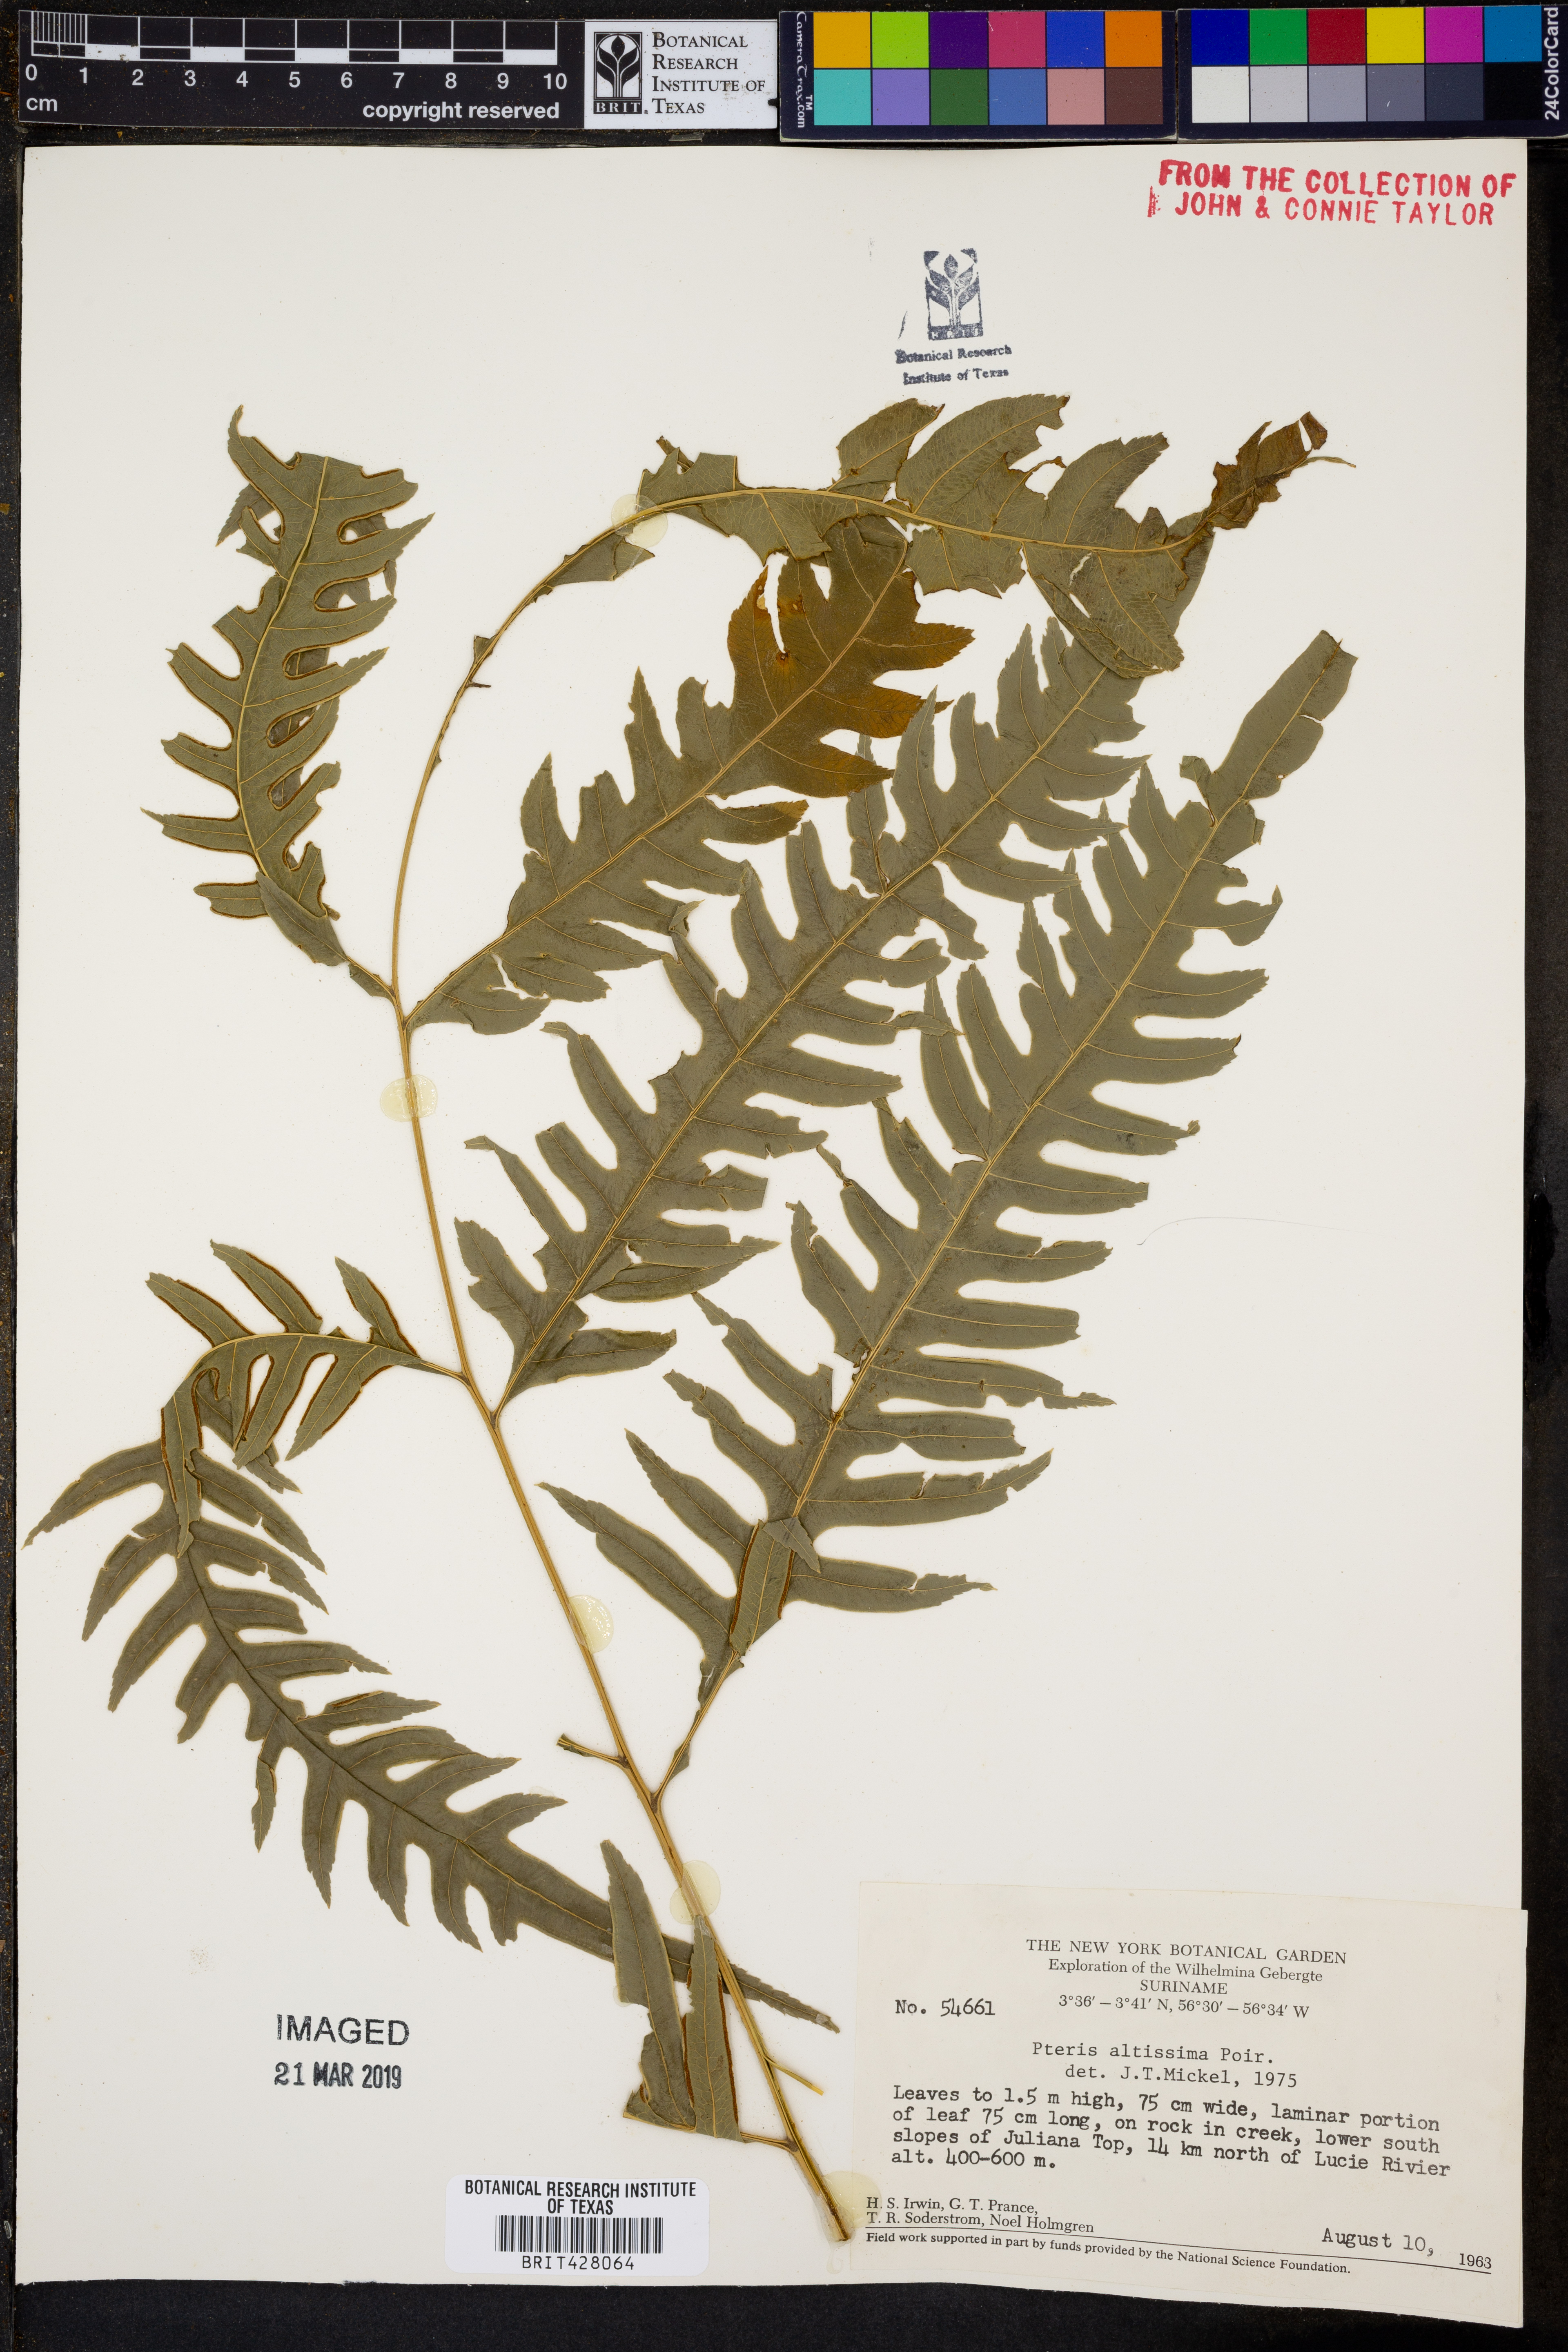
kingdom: Plantae
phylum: Tracheophyta
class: Polypodiopsida
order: Polypodiales
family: Pteridaceae
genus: Pteris
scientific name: Pteris altissima
